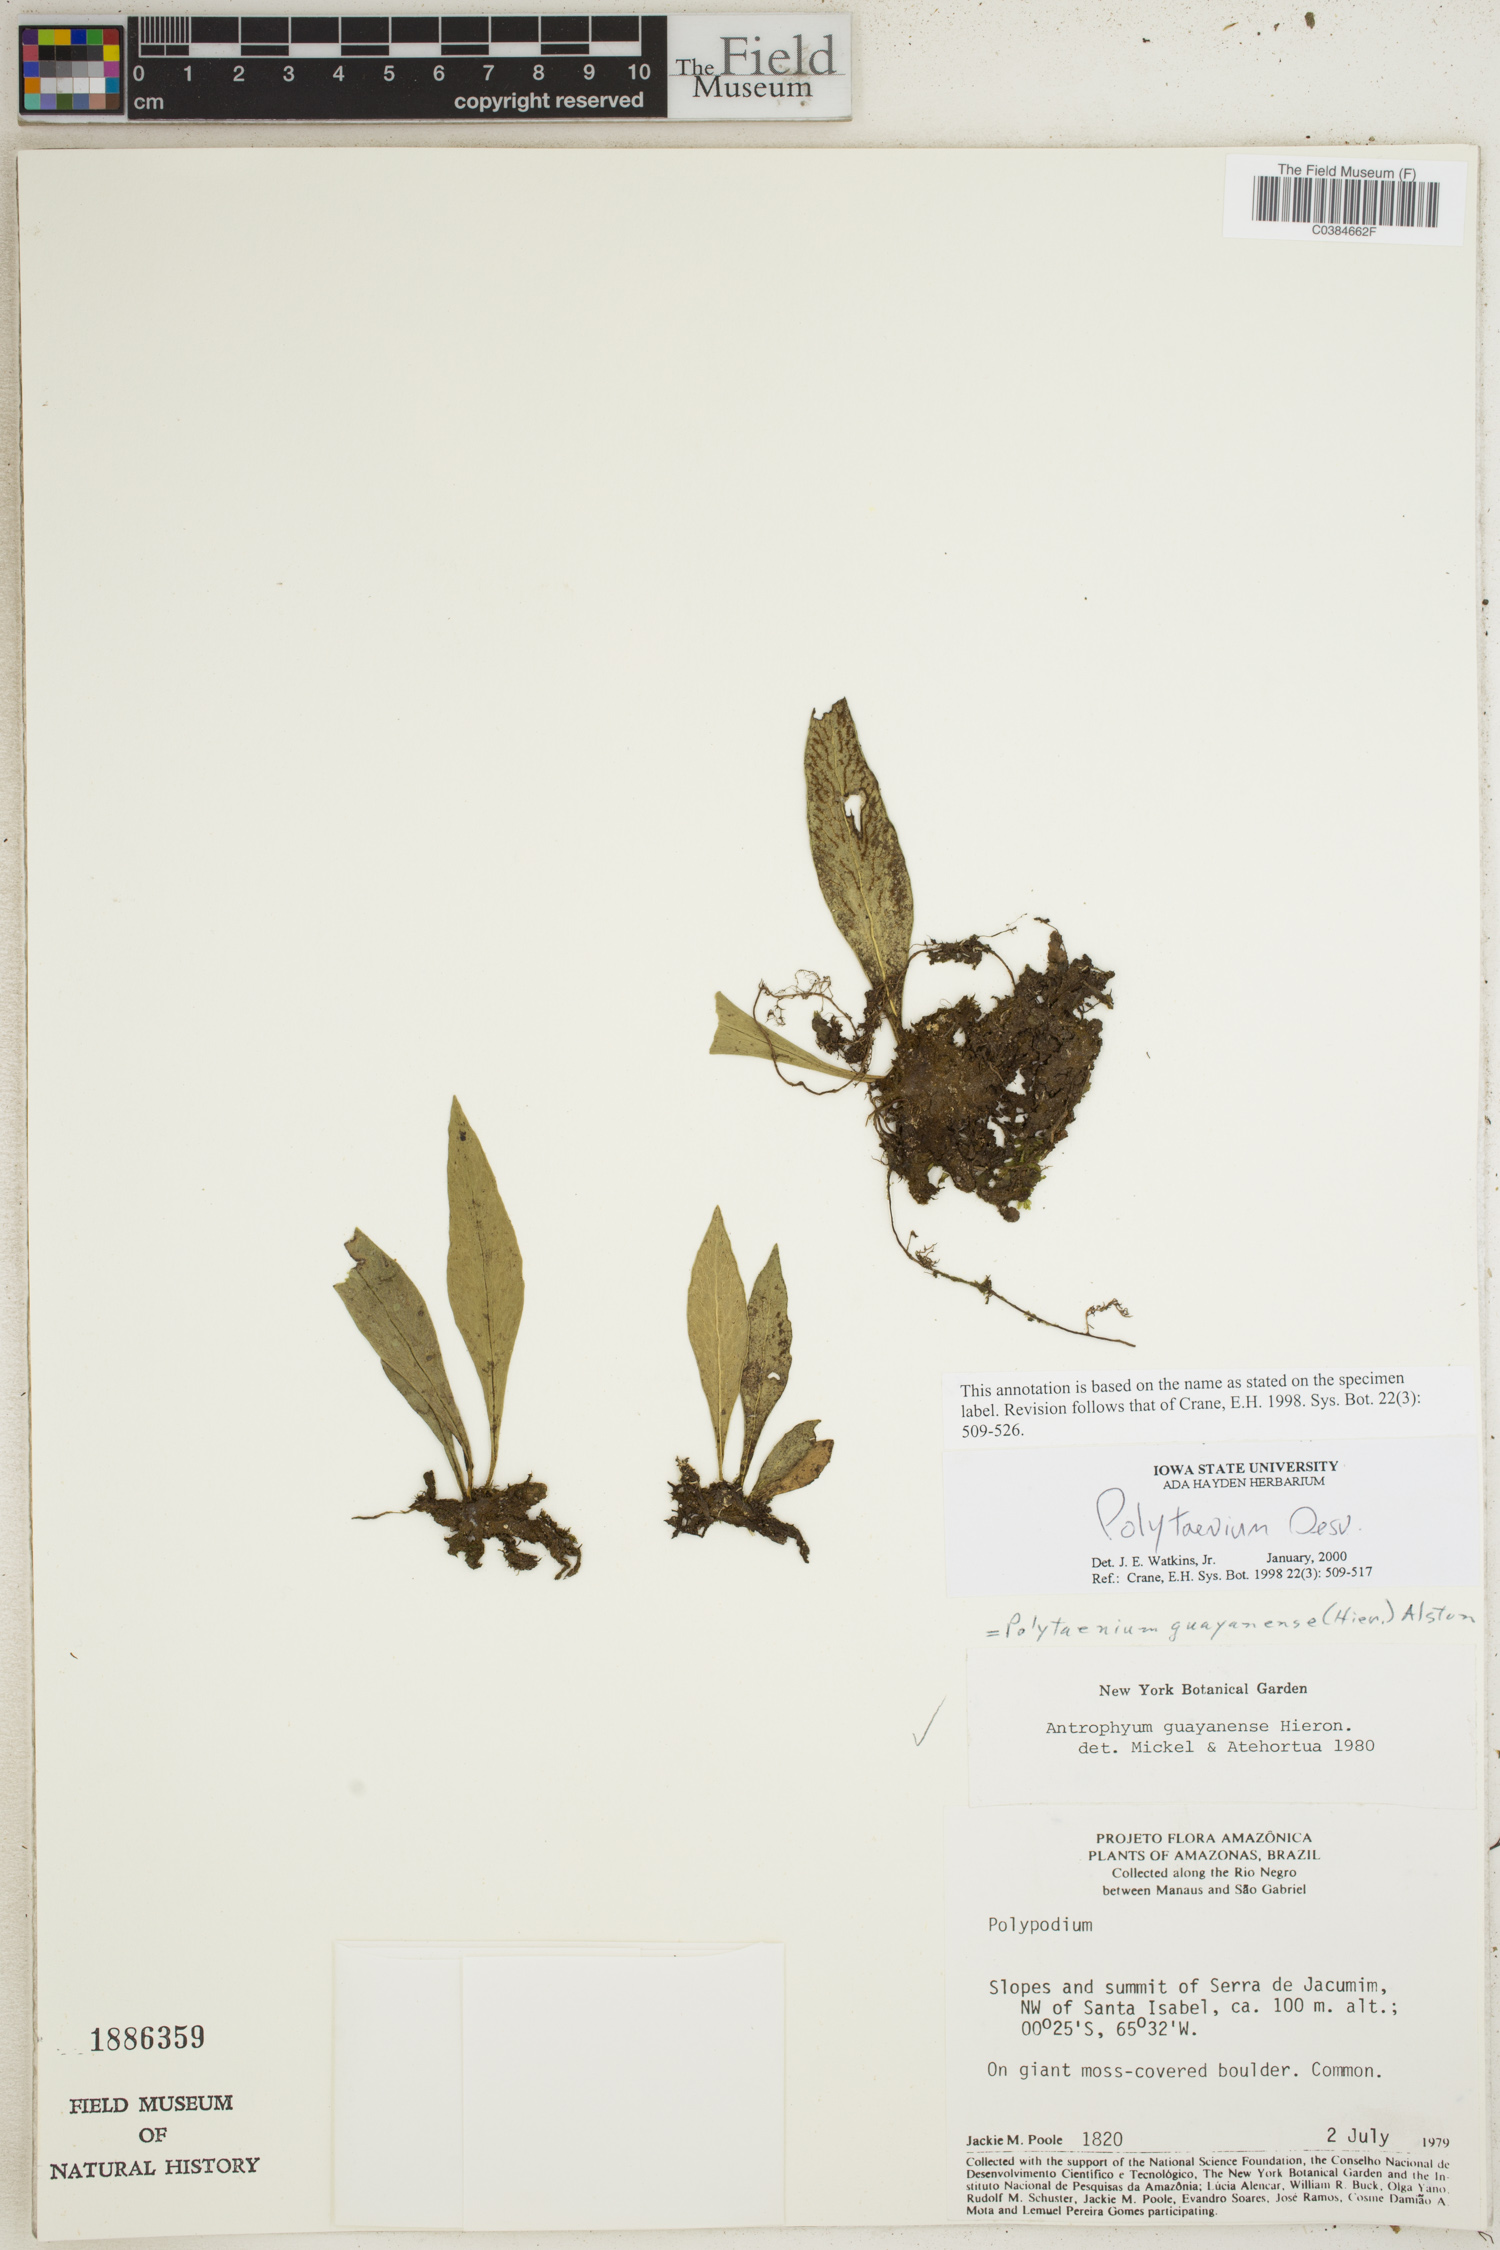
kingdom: Plantae
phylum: Tracheophyta
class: Polypodiopsida
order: Polypodiales
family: Pteridaceae
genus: Polytaenium
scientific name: Polytaenium
